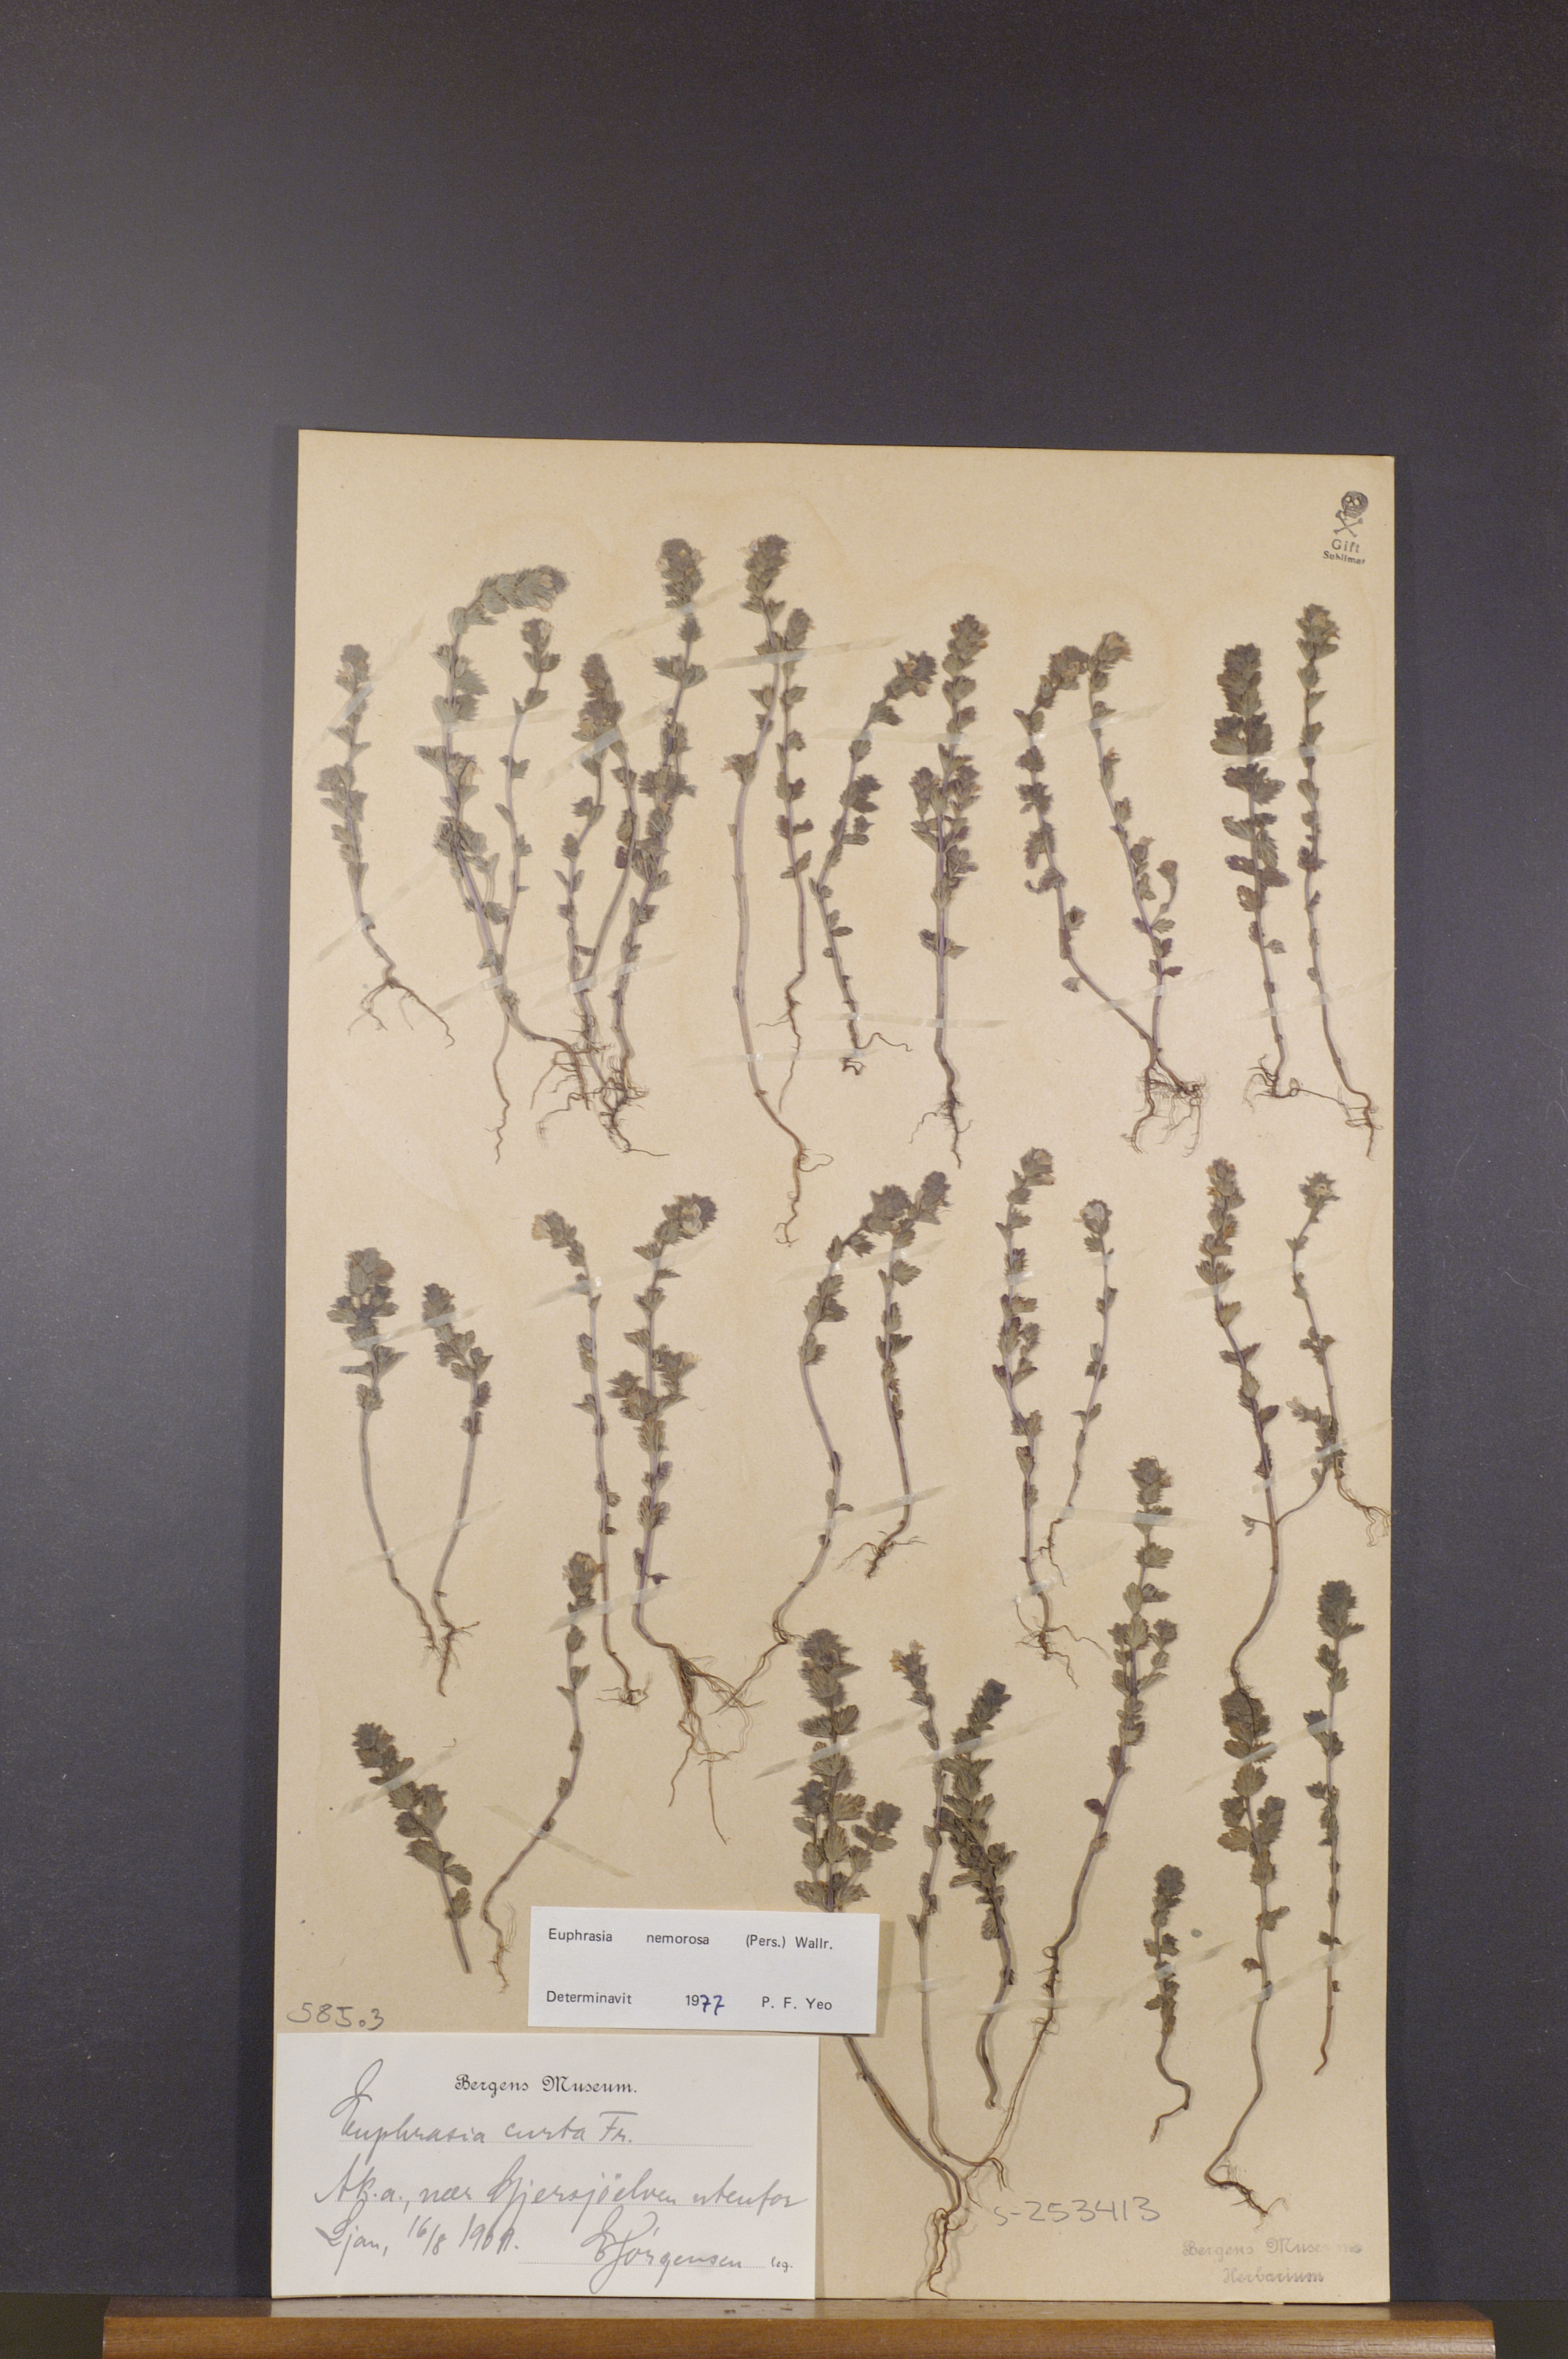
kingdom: Plantae
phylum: Tracheophyta
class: Magnoliopsida
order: Lamiales
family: Orobanchaceae
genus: Euphrasia
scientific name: Euphrasia nemorosa
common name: Common eyebright
